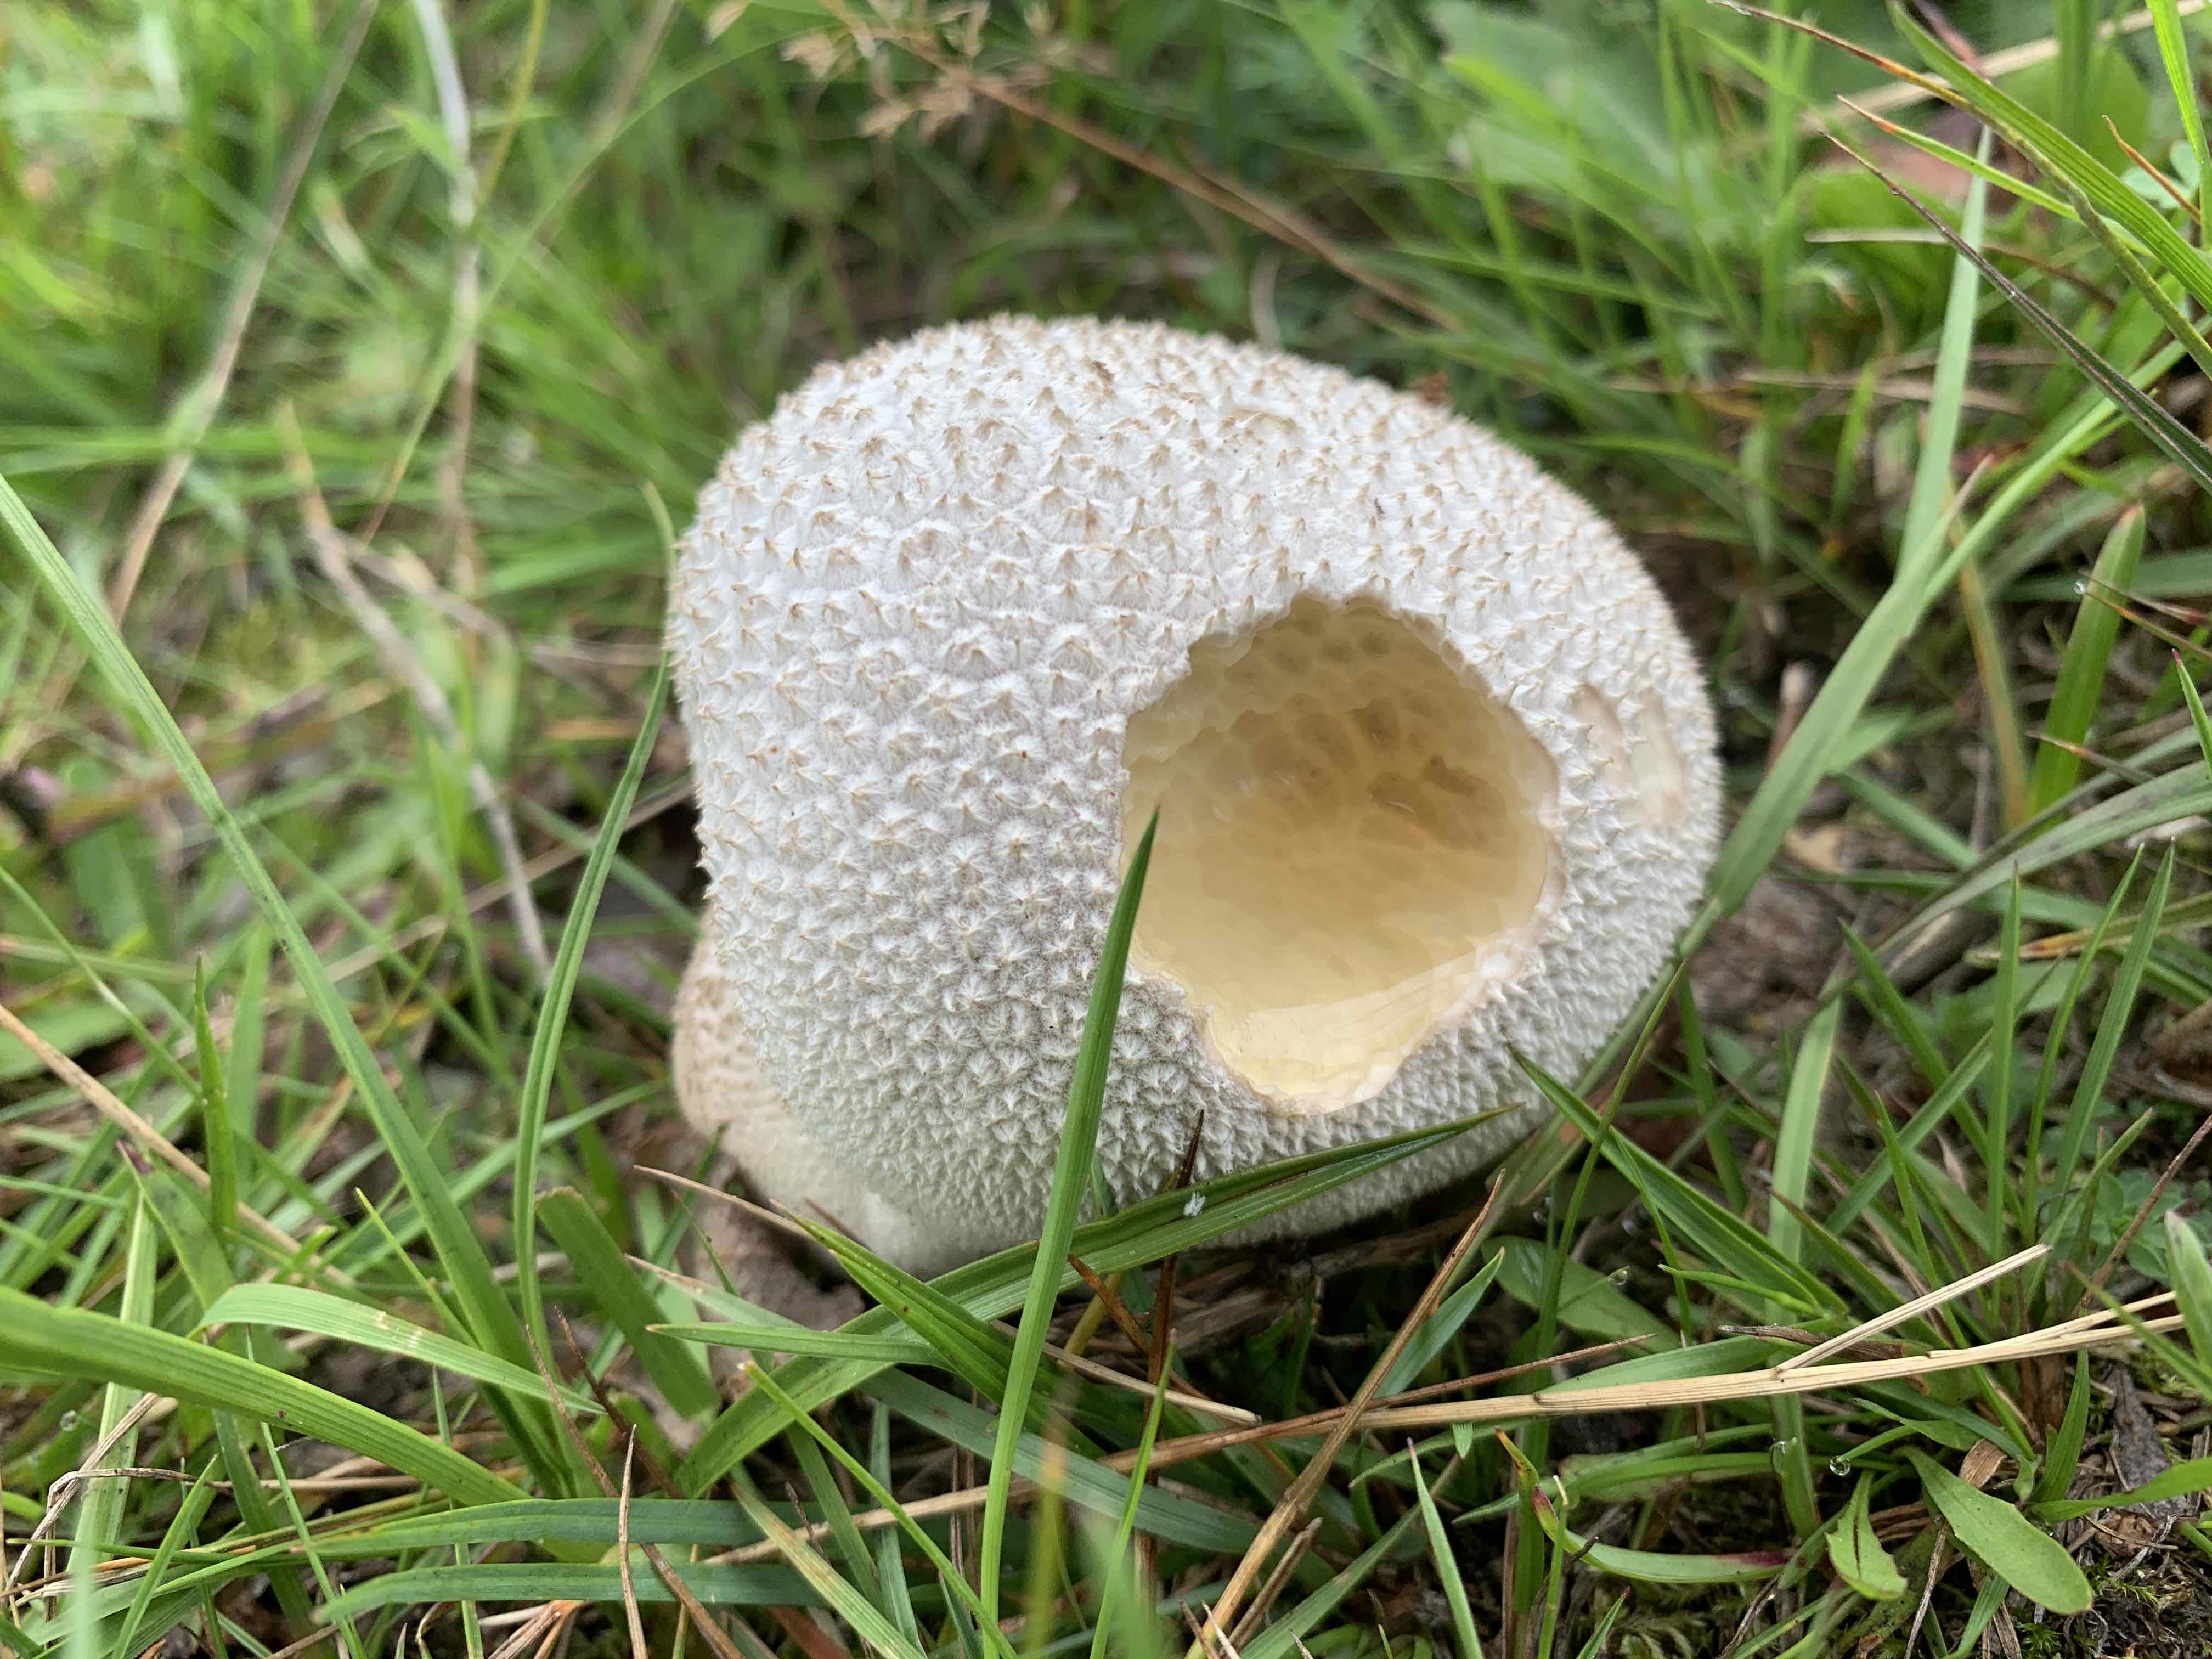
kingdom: Fungi
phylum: Basidiomycota
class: Agaricomycetes
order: Agaricales
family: Lycoperdaceae
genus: Bovistella
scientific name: Bovistella utriformis
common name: skællet støvbold
